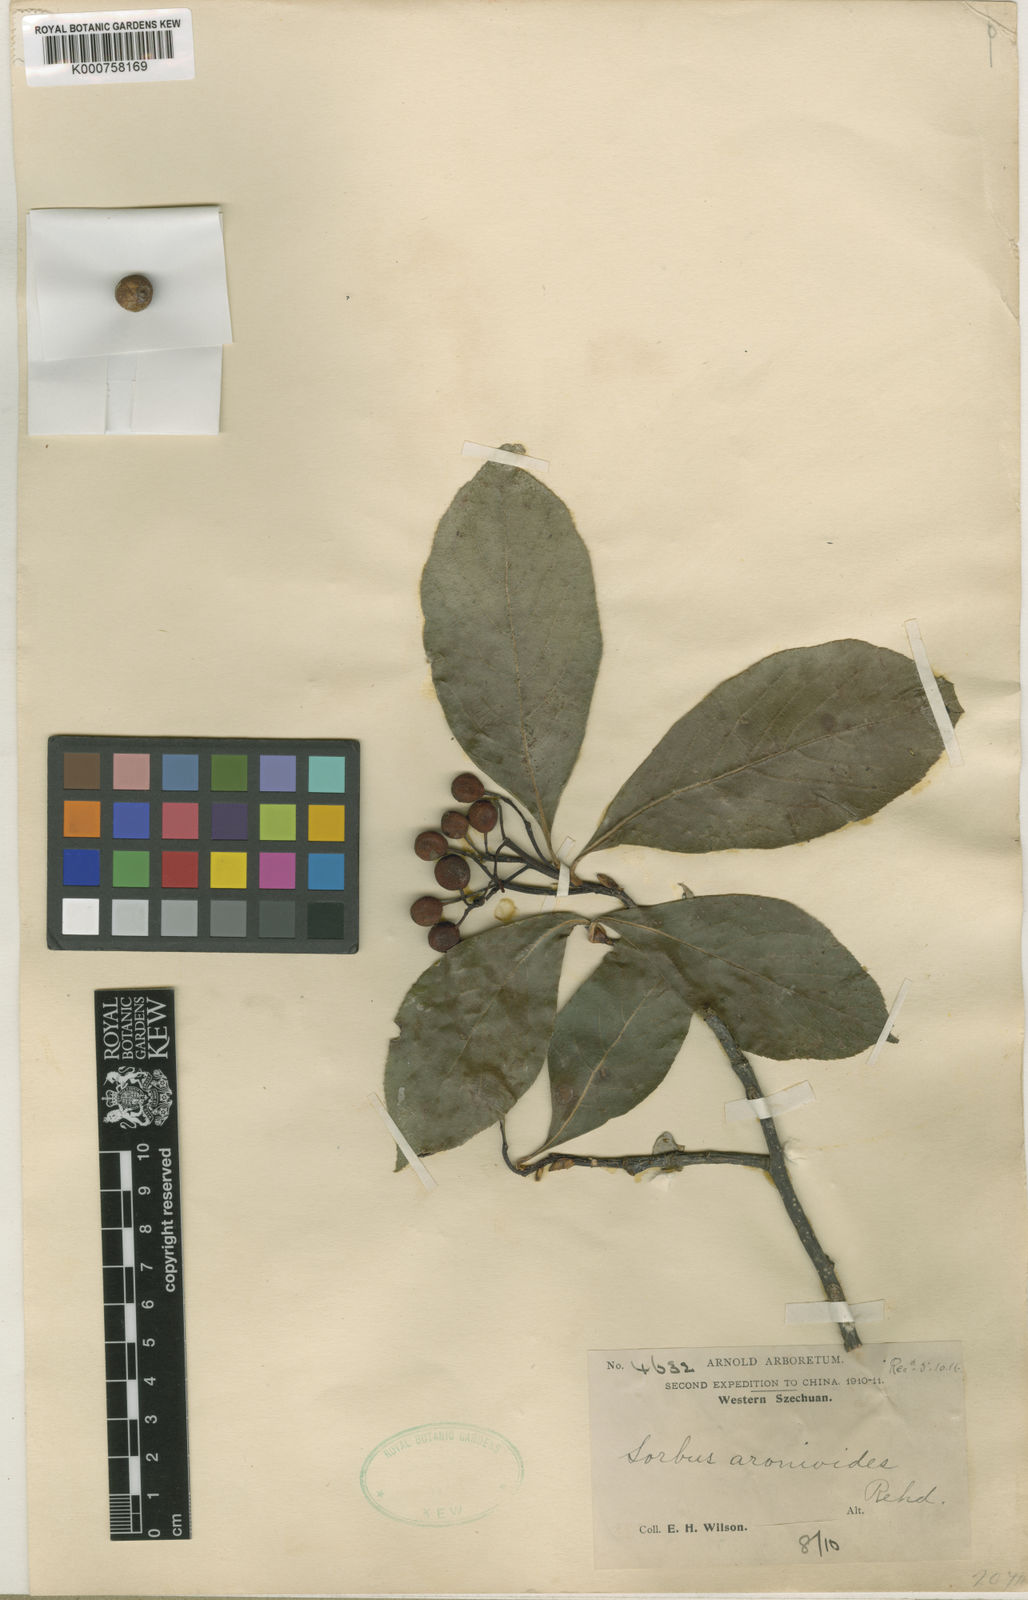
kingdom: Plantae
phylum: Tracheophyta
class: Magnoliopsida
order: Rosales
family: Rosaceae
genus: Sorbus
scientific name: Sorbus aronioides
